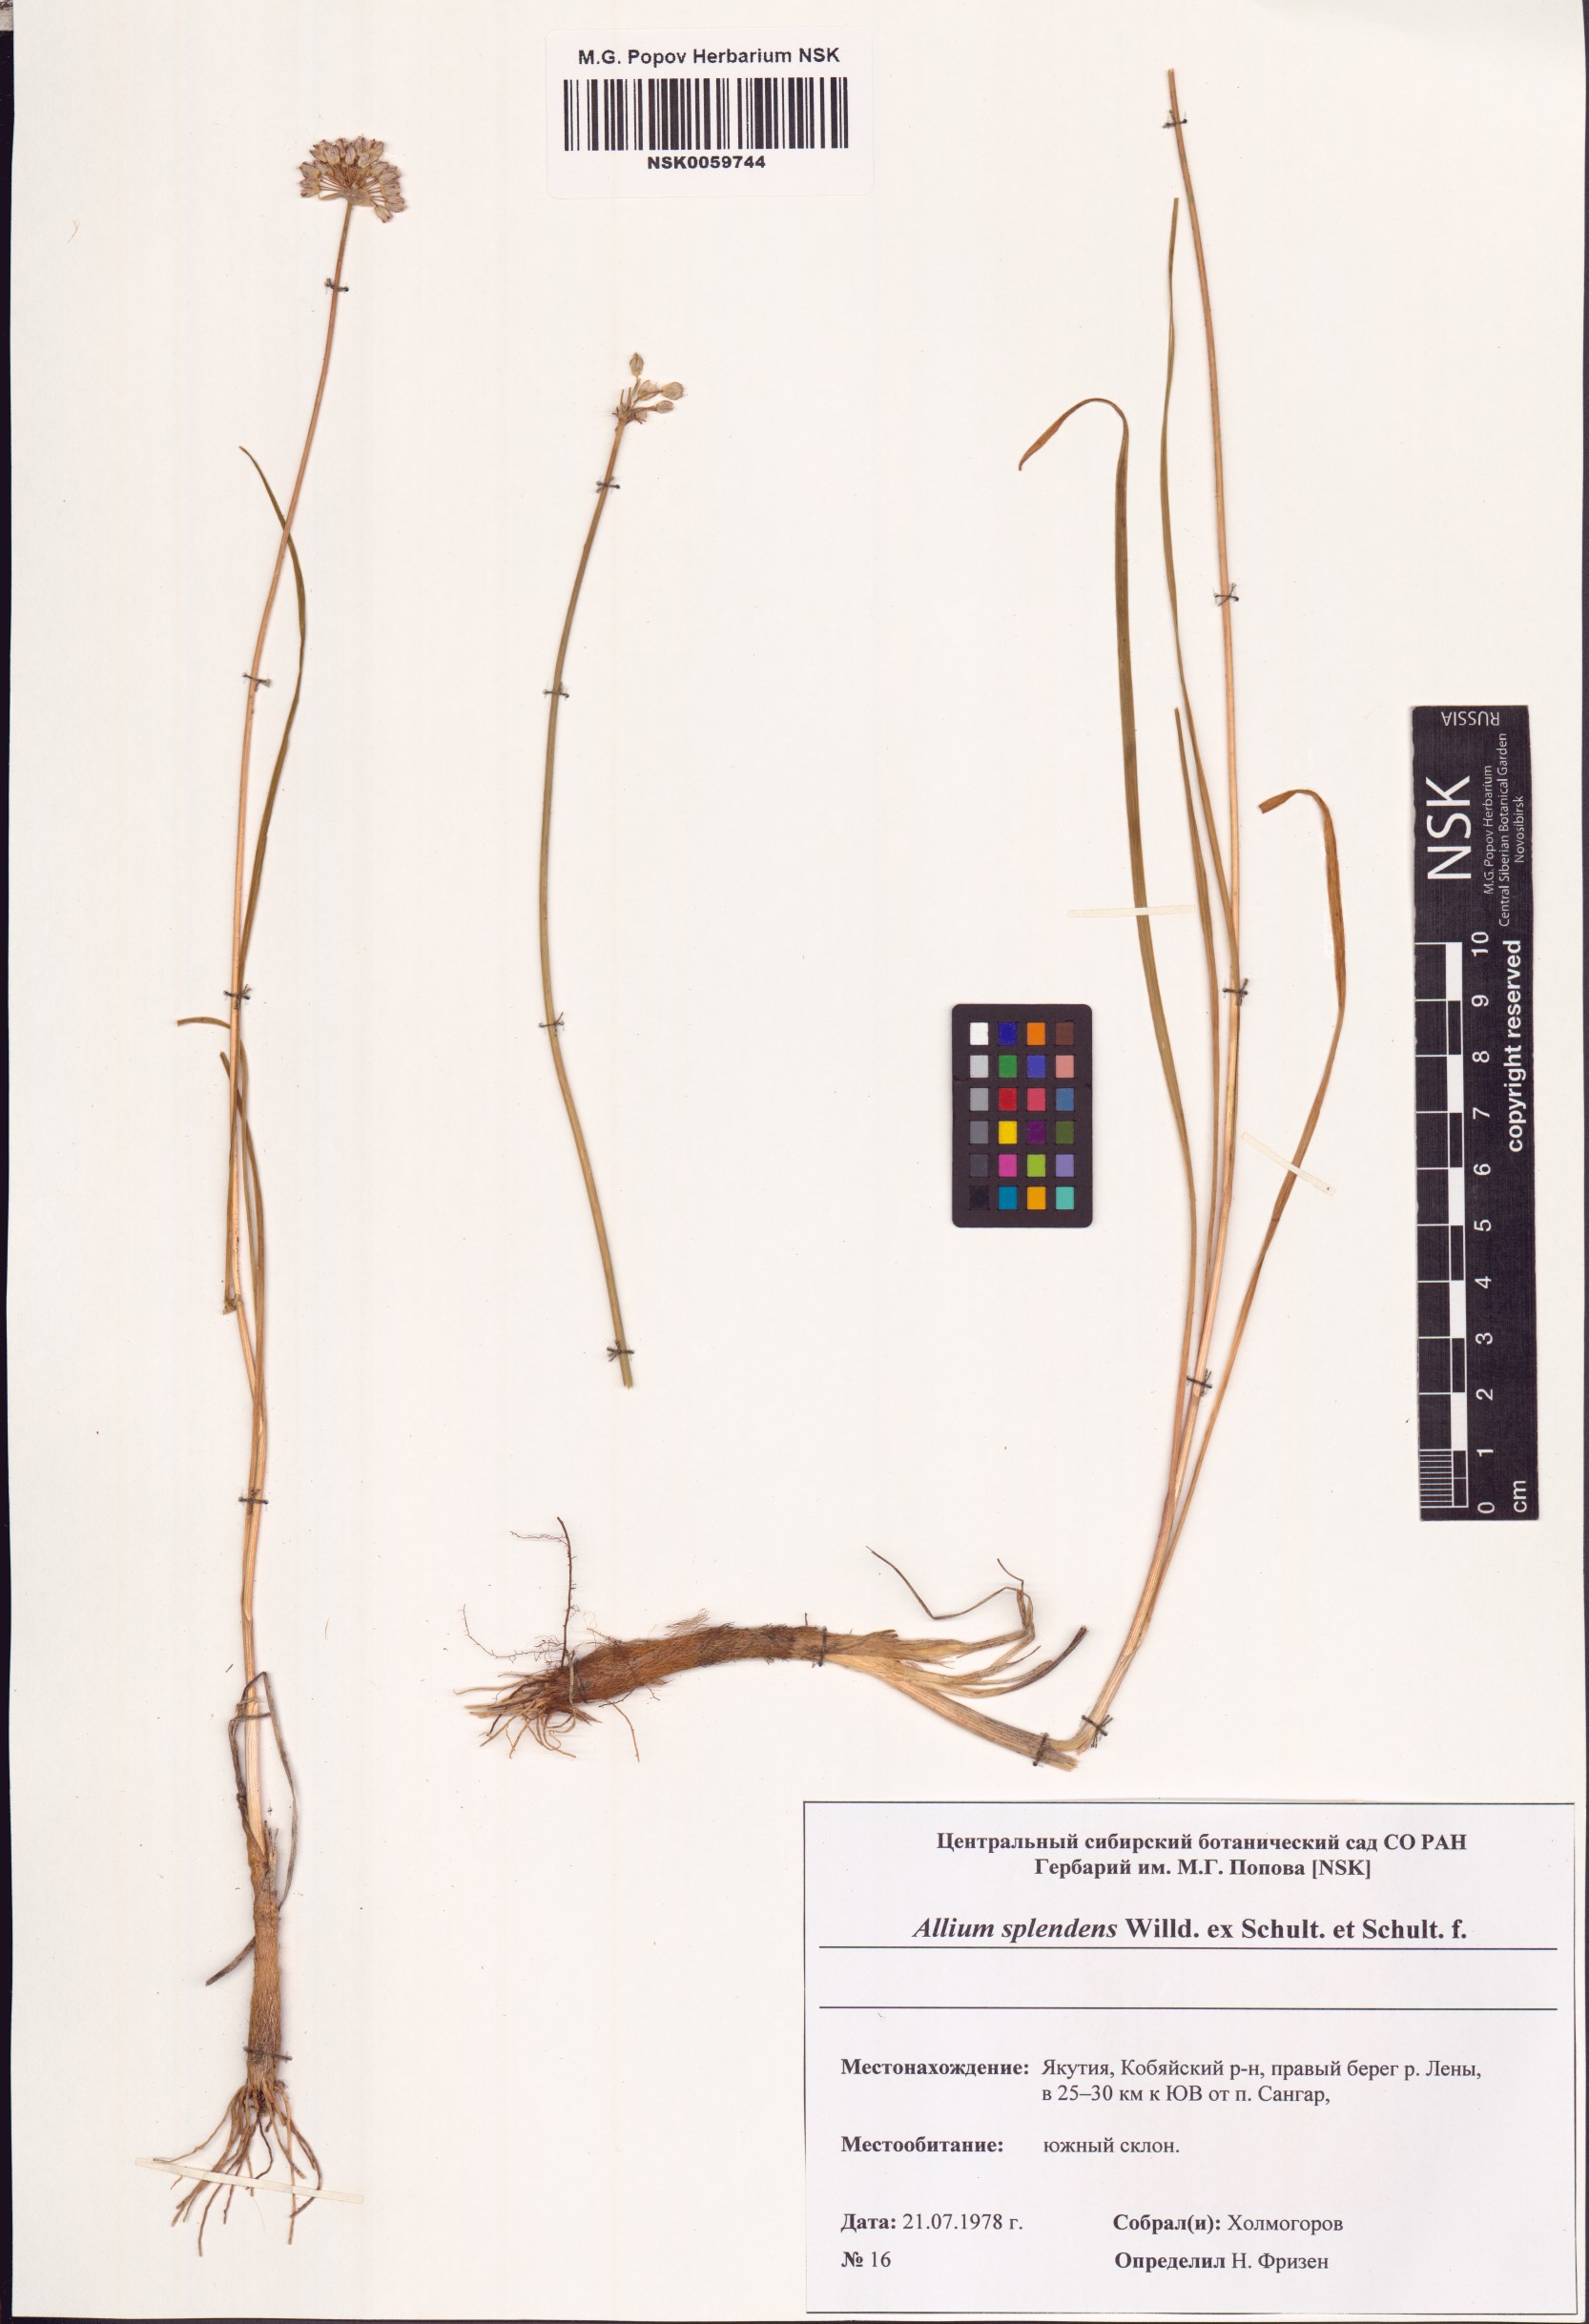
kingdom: Plantae
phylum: Tracheophyta
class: Liliopsida
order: Asparagales
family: Amaryllidaceae
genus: Allium
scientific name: Allium splendens
